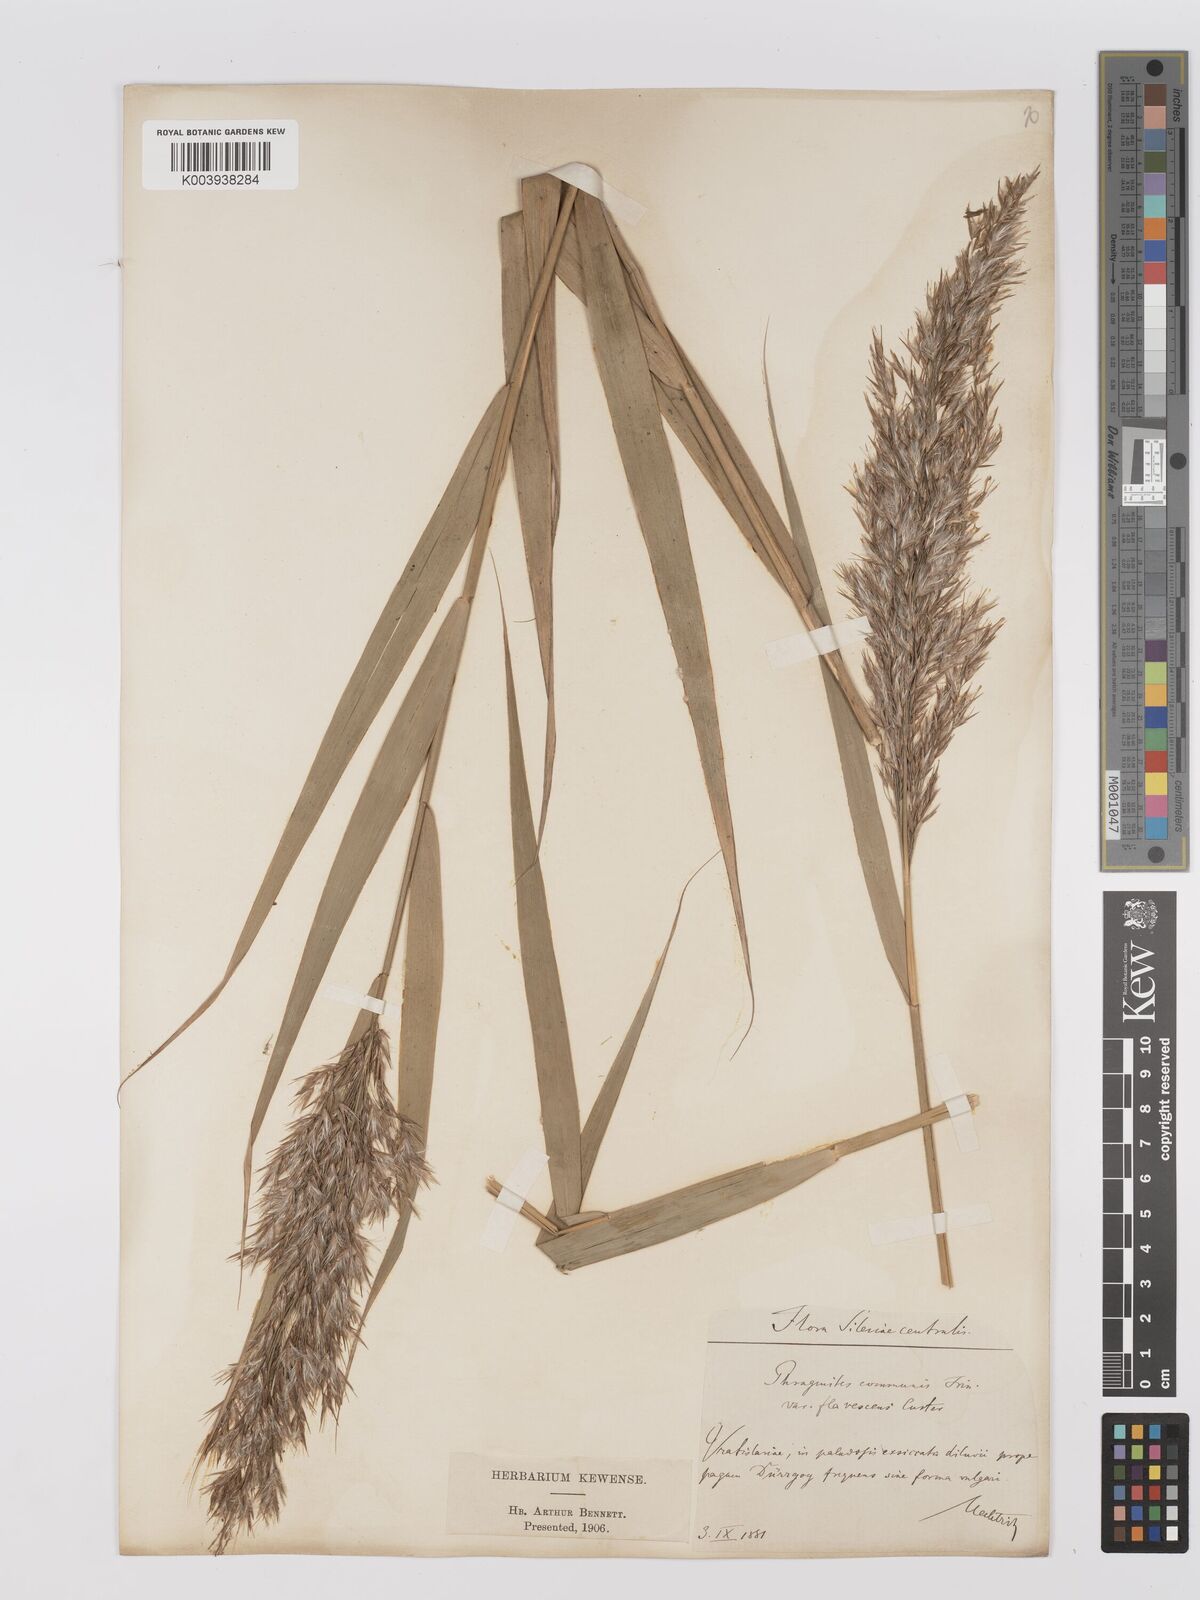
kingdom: Plantae
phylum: Tracheophyta
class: Liliopsida
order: Poales
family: Poaceae
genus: Phragmites
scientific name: Phragmites australis
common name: Common reed
